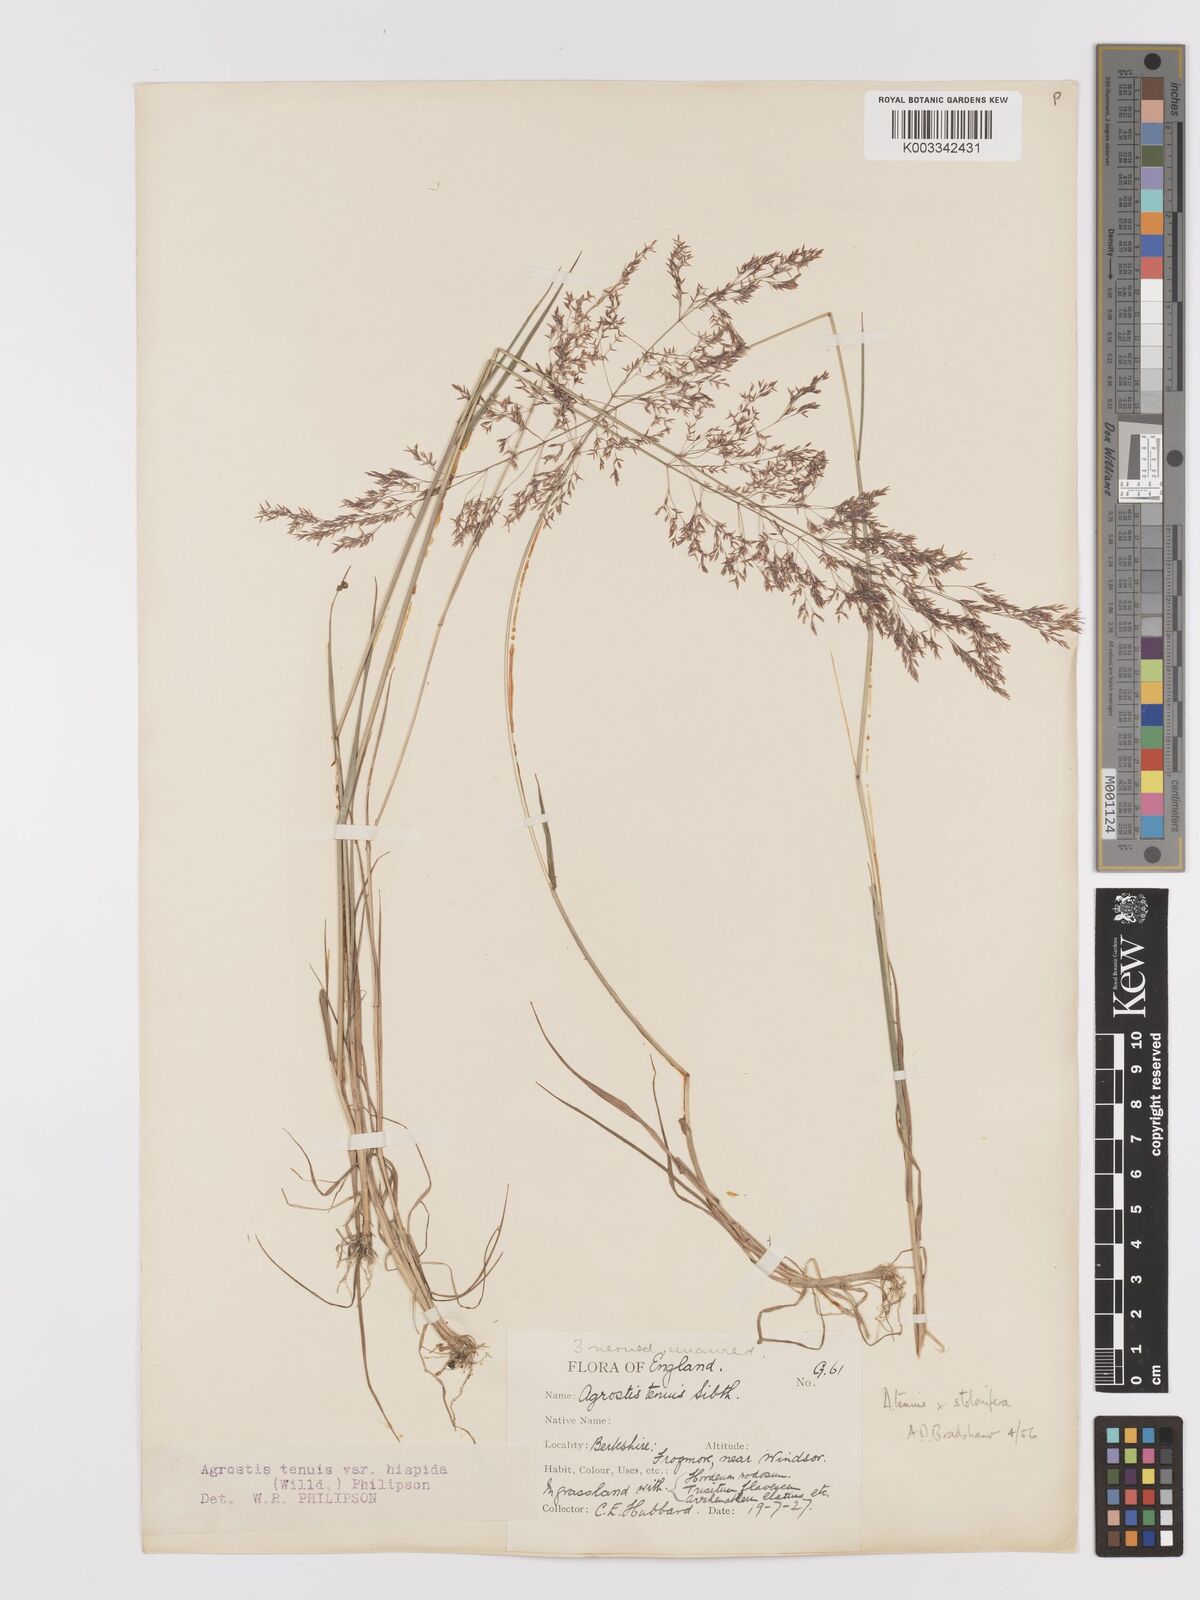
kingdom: Plantae
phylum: Tracheophyta
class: Liliopsida
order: Poales
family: Poaceae
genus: Agrostis
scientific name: Agrostis capillaris
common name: Colonial bentgrass
